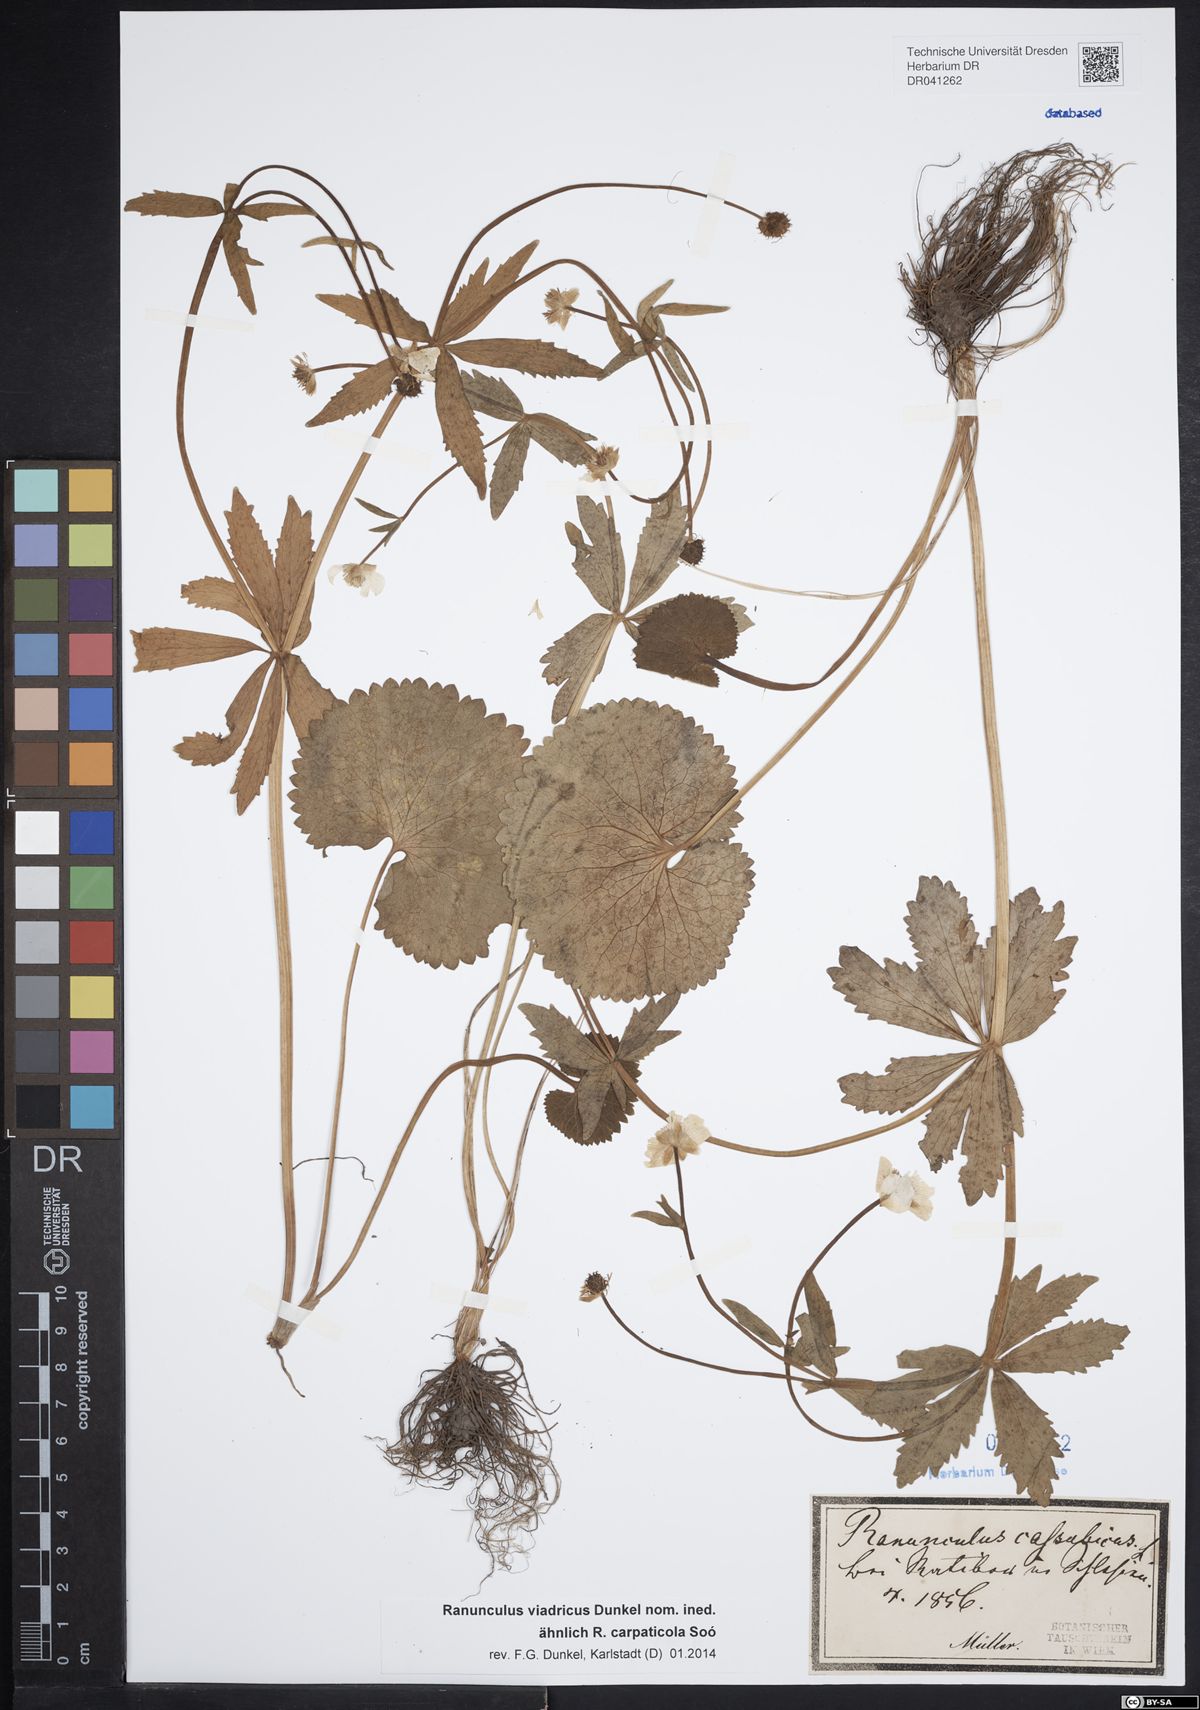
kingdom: Plantae
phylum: Tracheophyta
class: Magnoliopsida
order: Ranunculales
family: Ranunculaceae
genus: Ranunculus
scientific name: Ranunculus cassubicus
